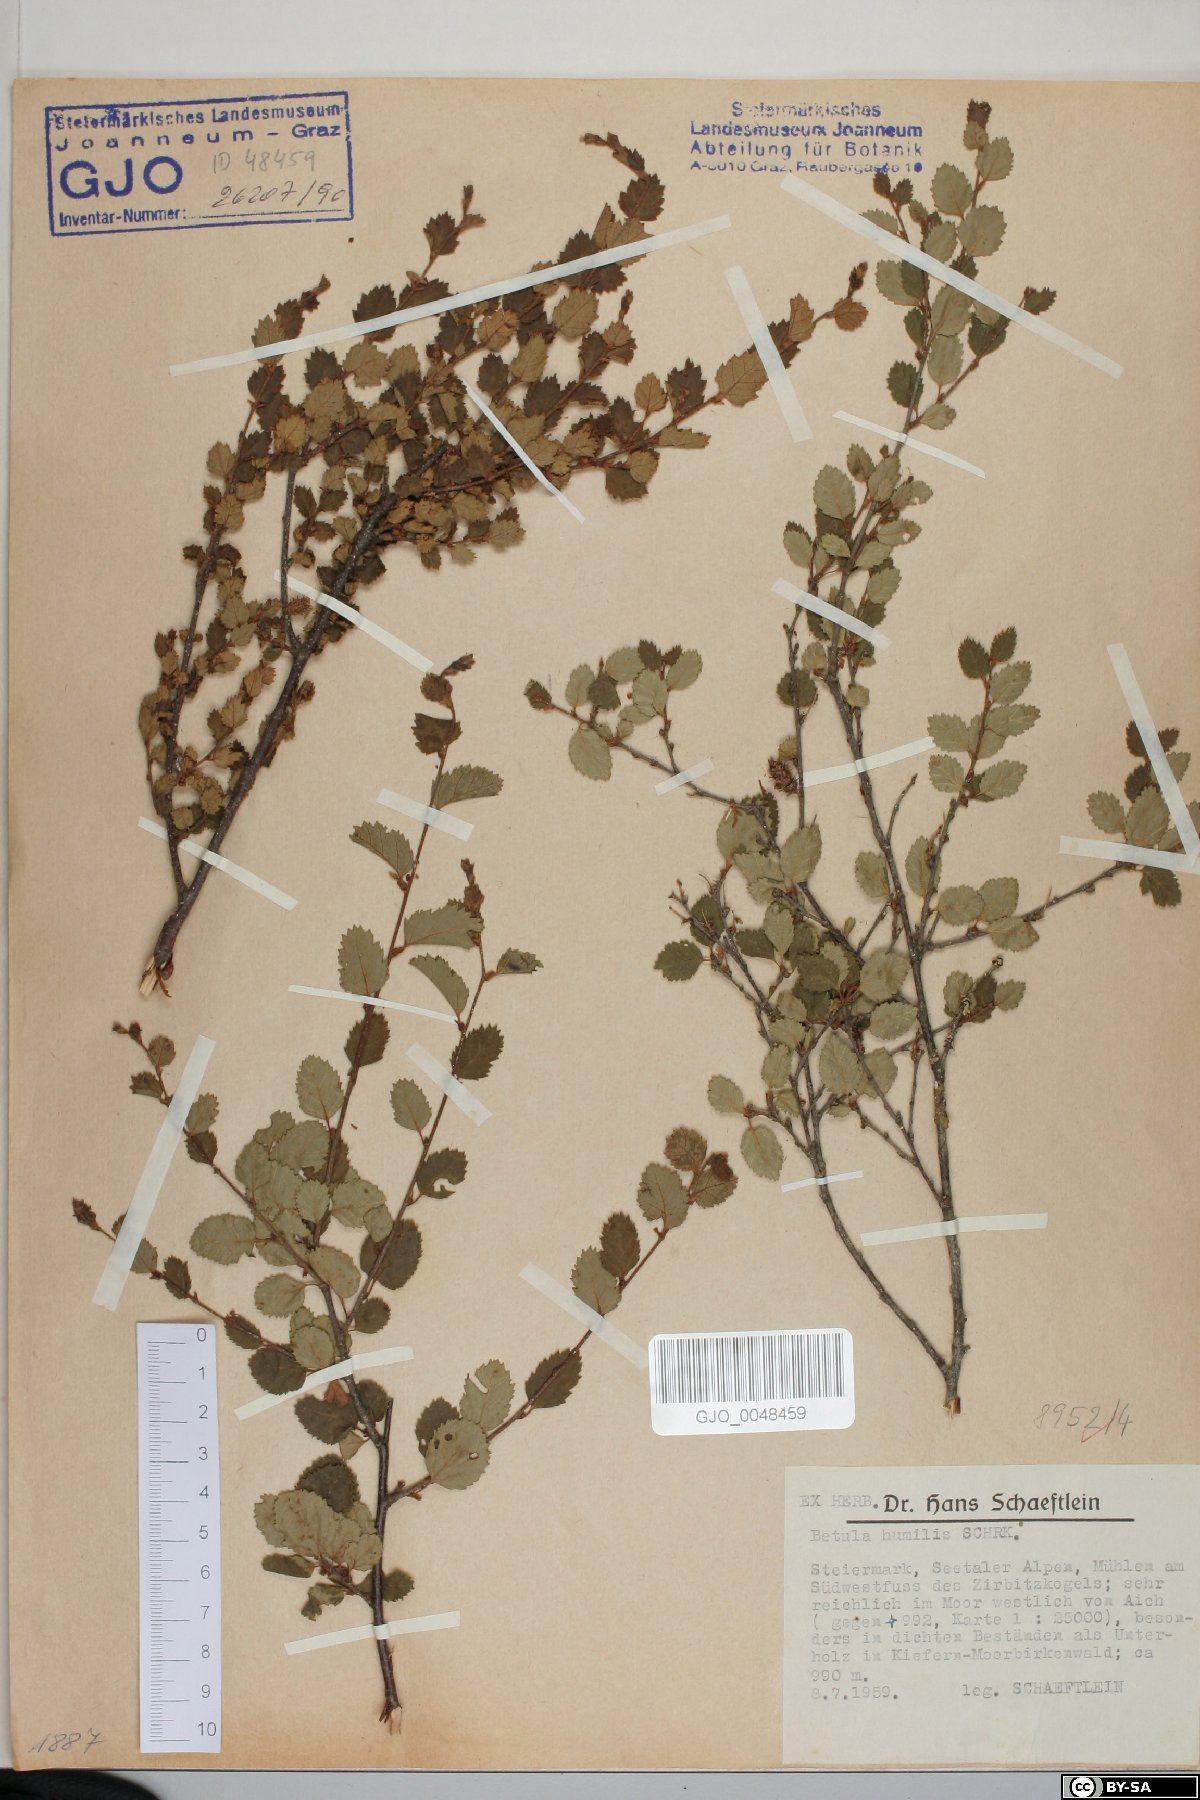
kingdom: Plantae
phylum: Tracheophyta
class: Magnoliopsida
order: Fagales
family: Betulaceae
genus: Betula
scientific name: Betula humilis
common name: Shrubby birch
